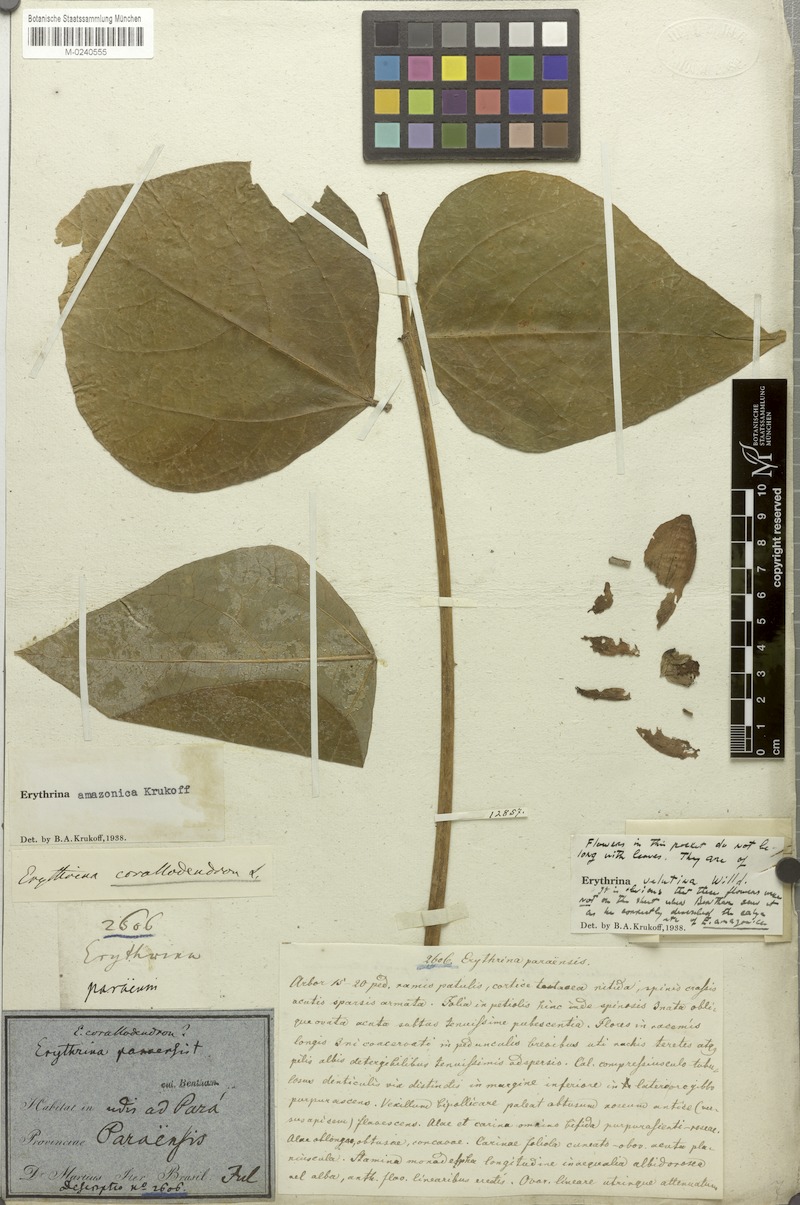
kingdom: Plantae
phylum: Tracheophyta
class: Magnoliopsida
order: Fabales
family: Fabaceae
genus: Erythrina
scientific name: Erythrina amazonica
